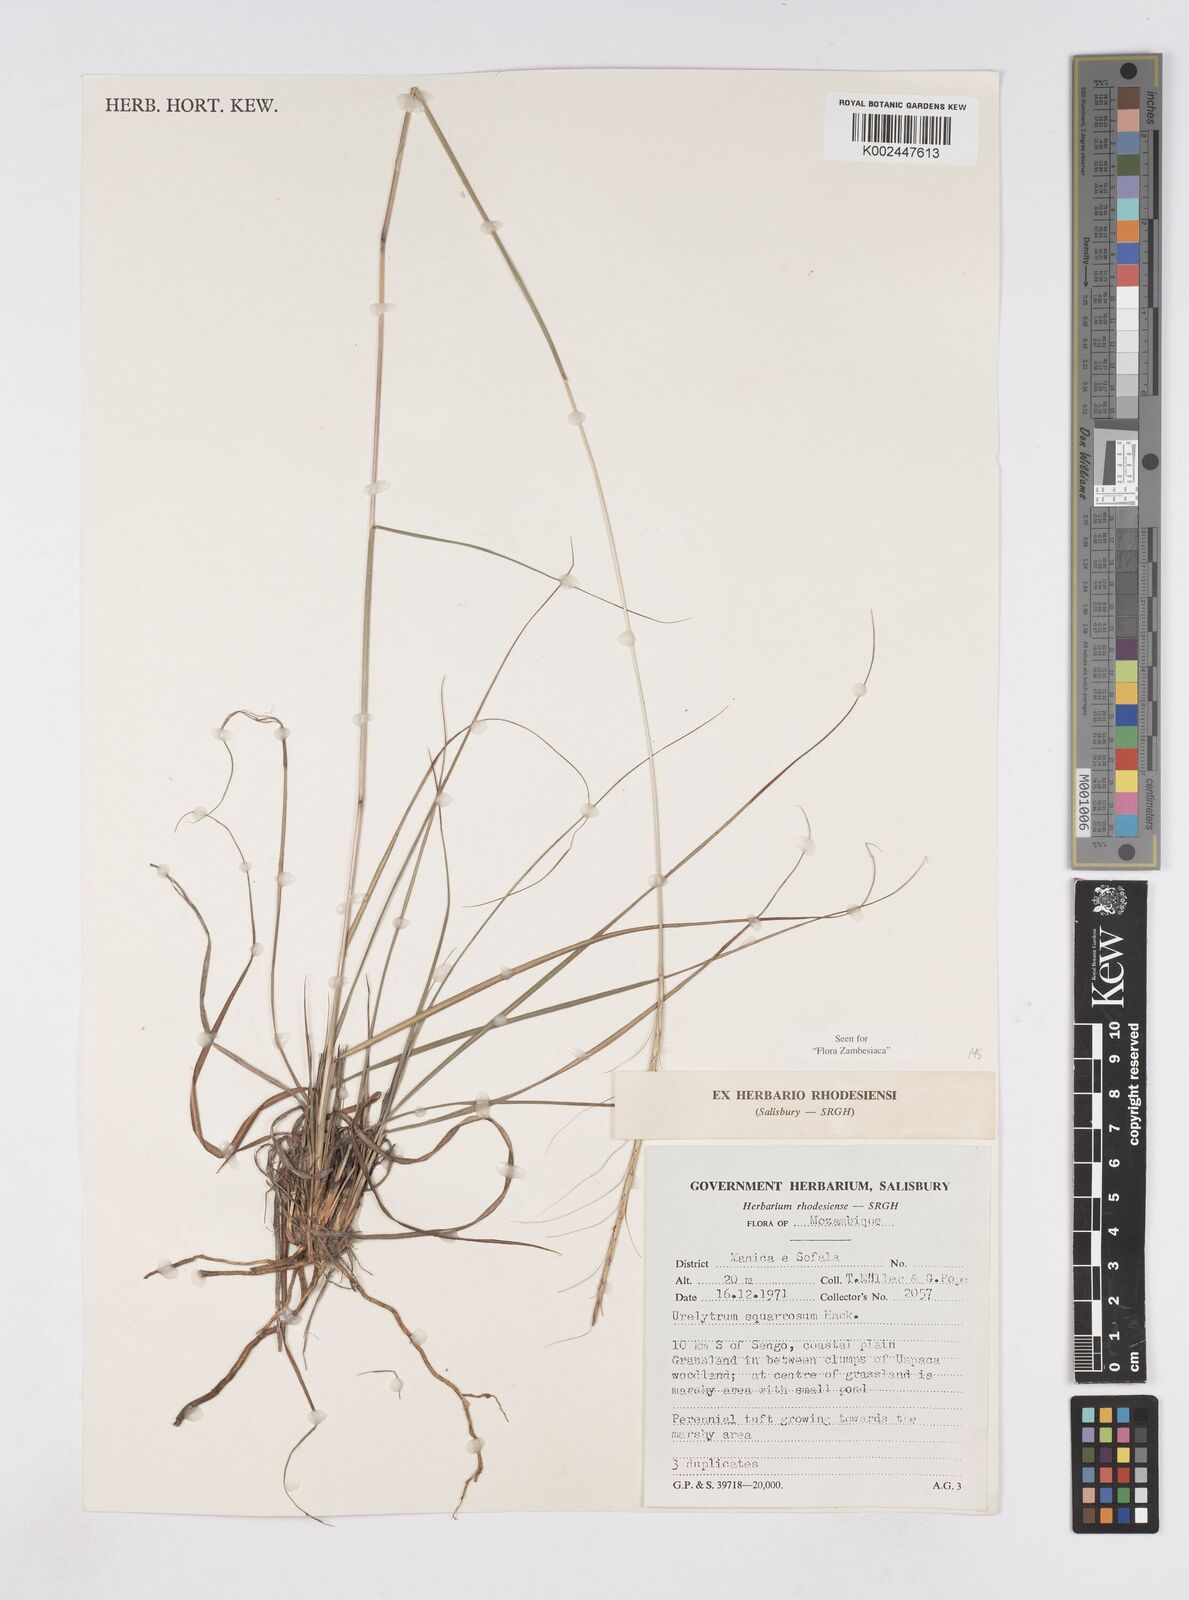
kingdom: Plantae
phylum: Tracheophyta
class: Liliopsida
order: Poales
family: Poaceae
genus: Urelytrum
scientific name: Urelytrum agropyroides
